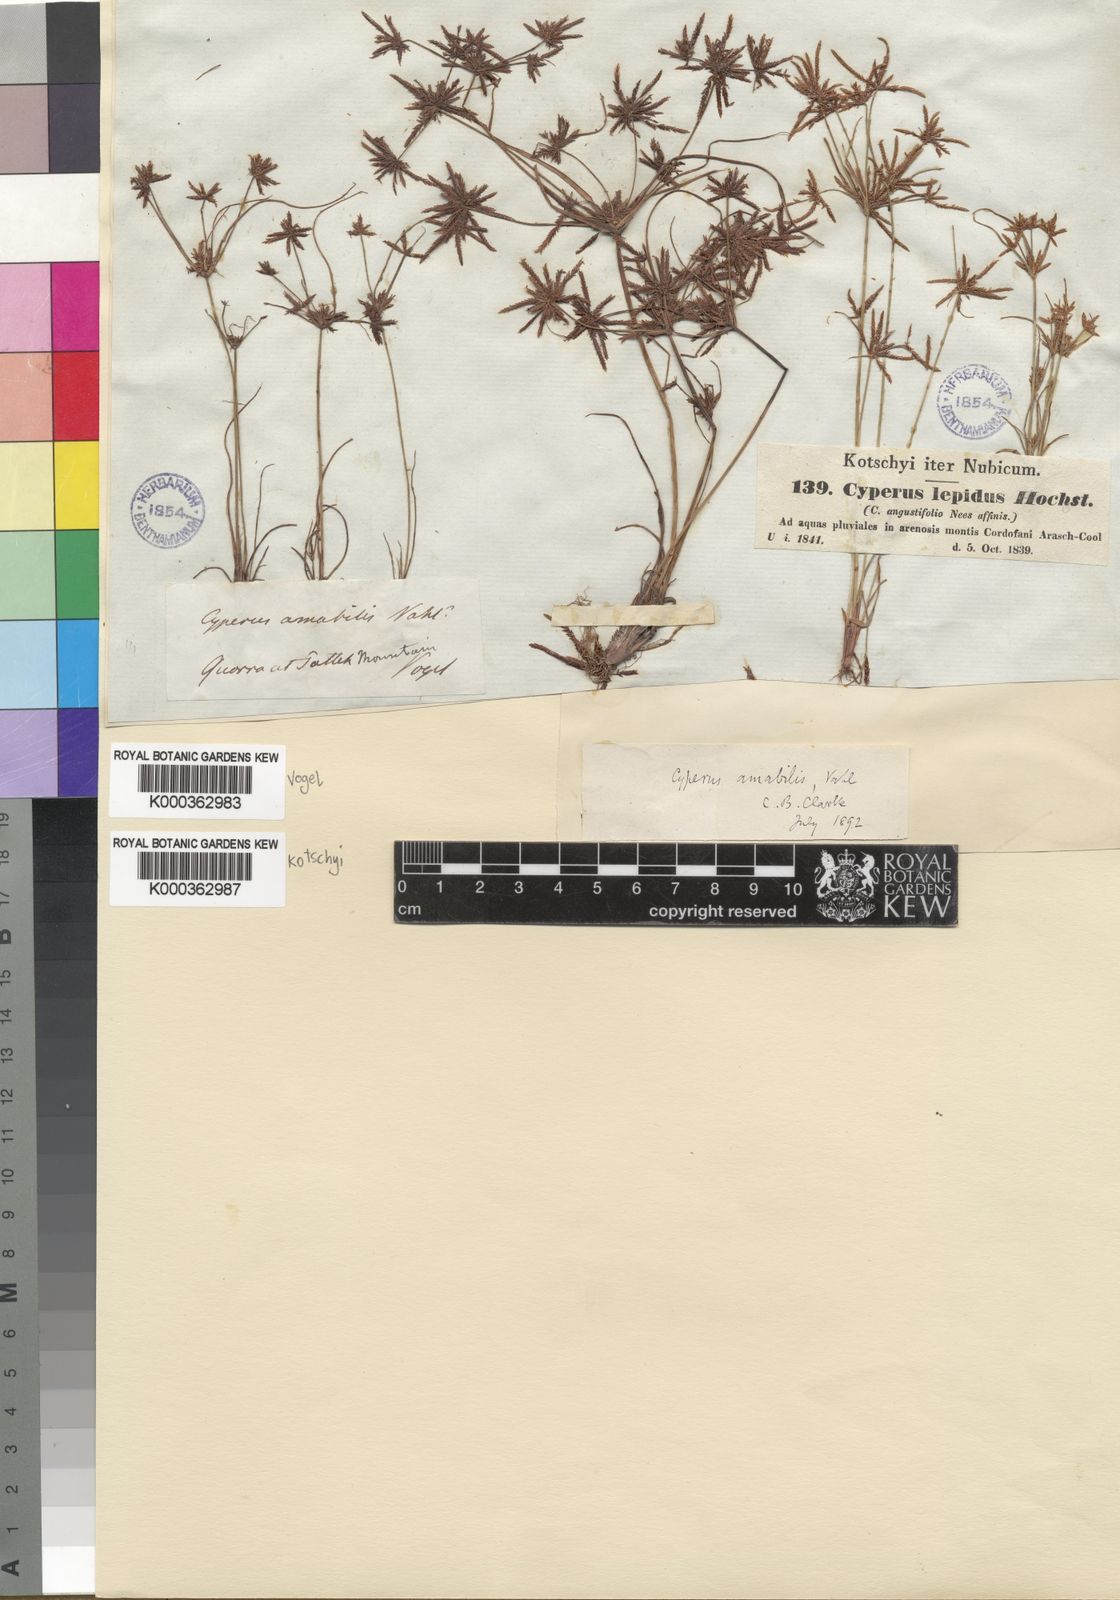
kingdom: Plantae
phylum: Tracheophyta
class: Liliopsida
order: Poales
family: Cyperaceae
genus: Cyperus
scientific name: Cyperus amabilis
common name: Foothill flat sedge
